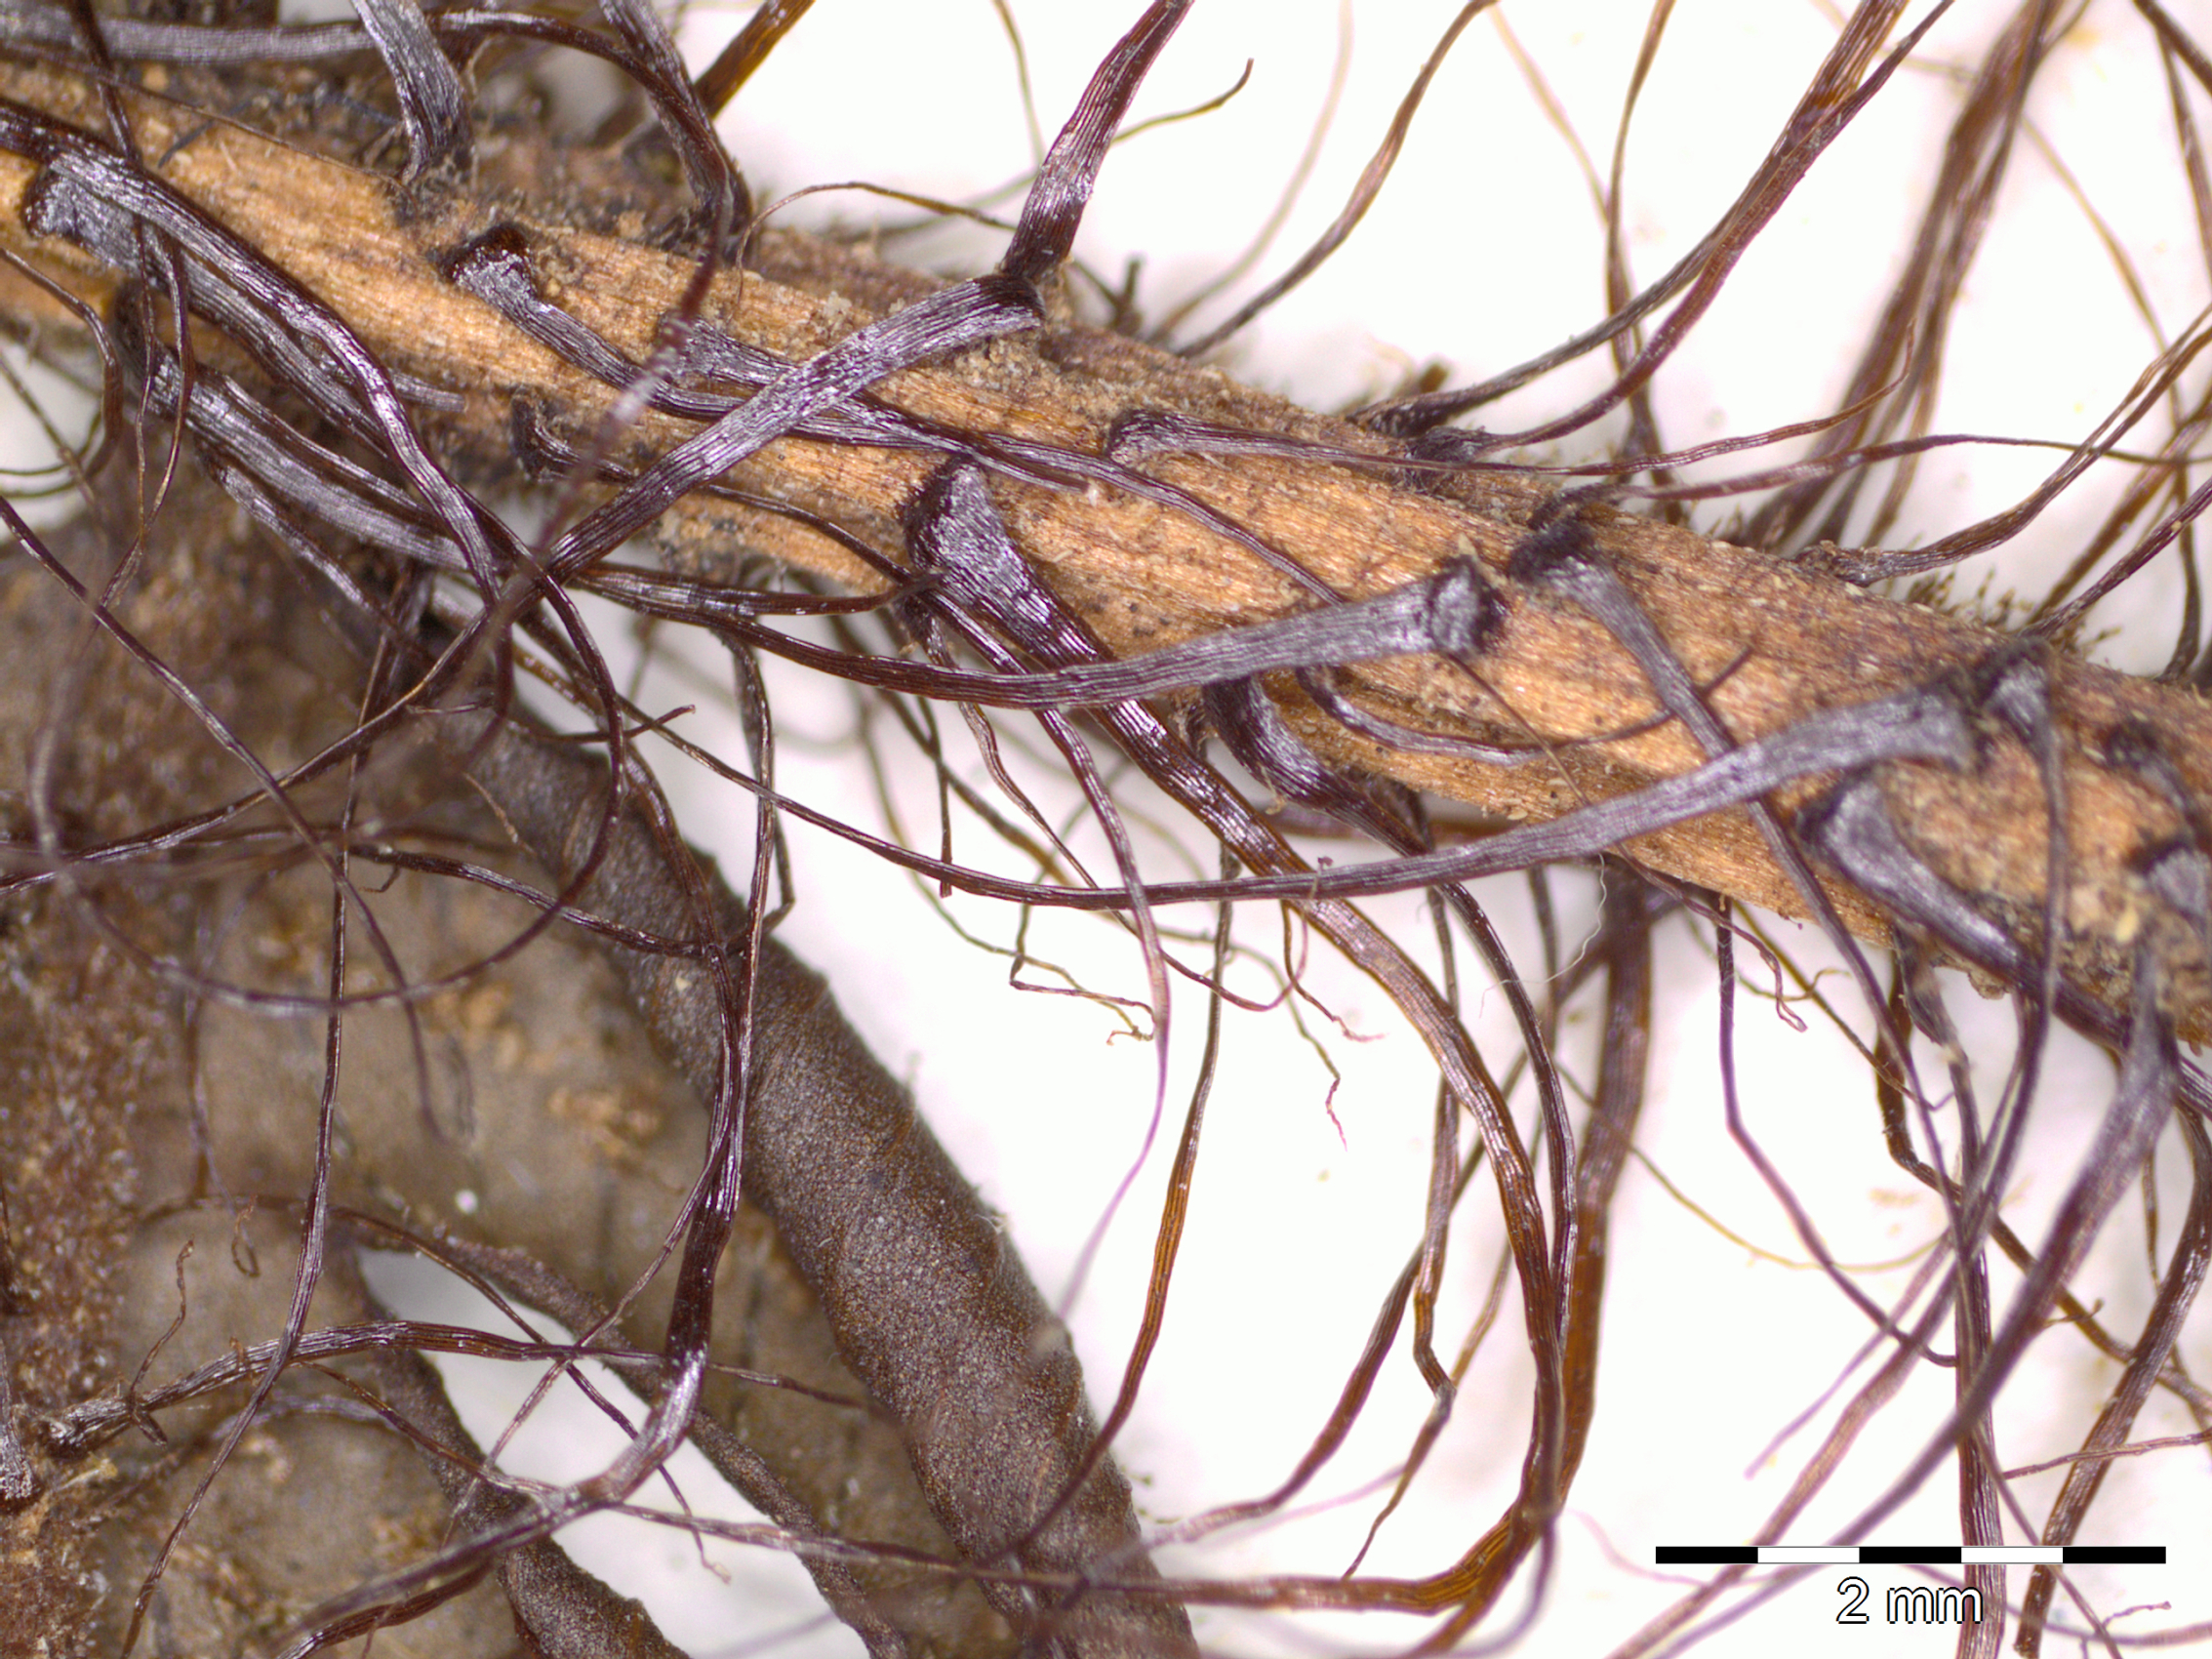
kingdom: Plantae
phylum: Tracheophyta
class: Polypodiopsida
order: Polypodiales
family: Polypodiaceae
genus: Polypodium
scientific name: Polypodium hispidulum
